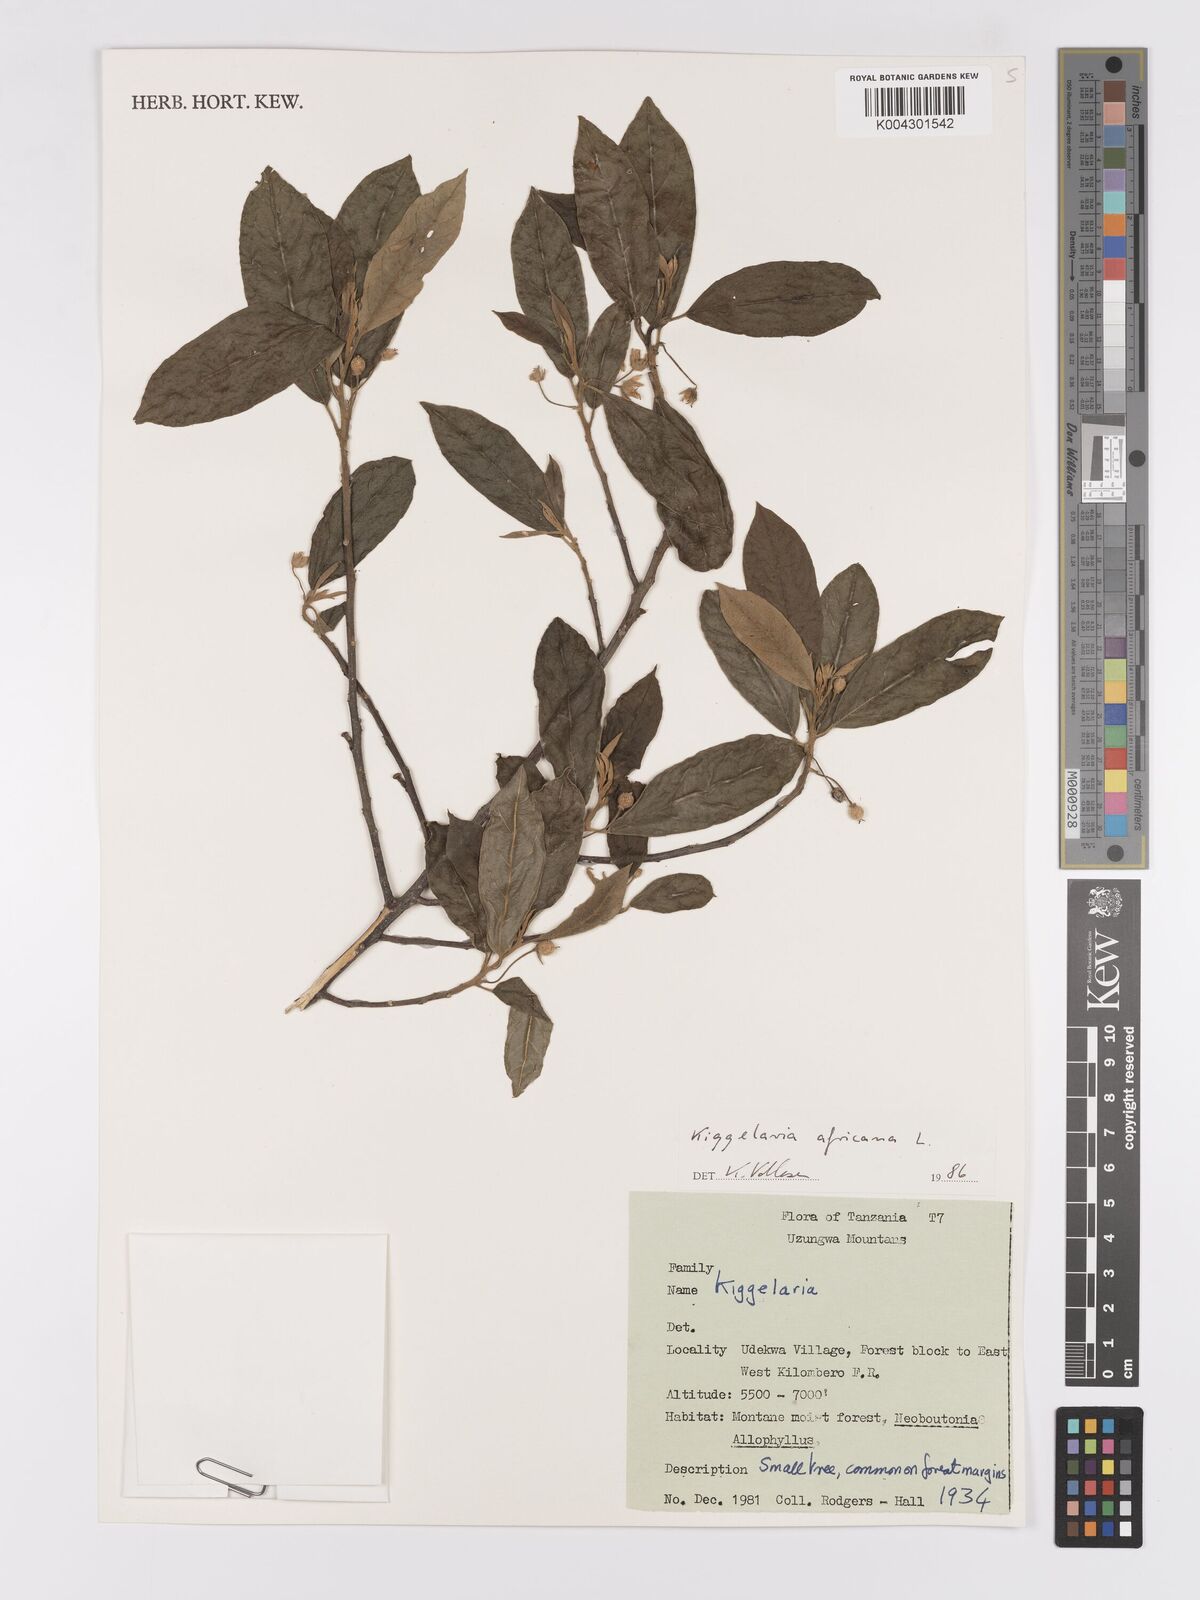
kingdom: Plantae
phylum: Tracheophyta
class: Magnoliopsida
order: Malpighiales
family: Achariaceae
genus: Kiggelaria
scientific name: Kiggelaria africana
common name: Wild peach
